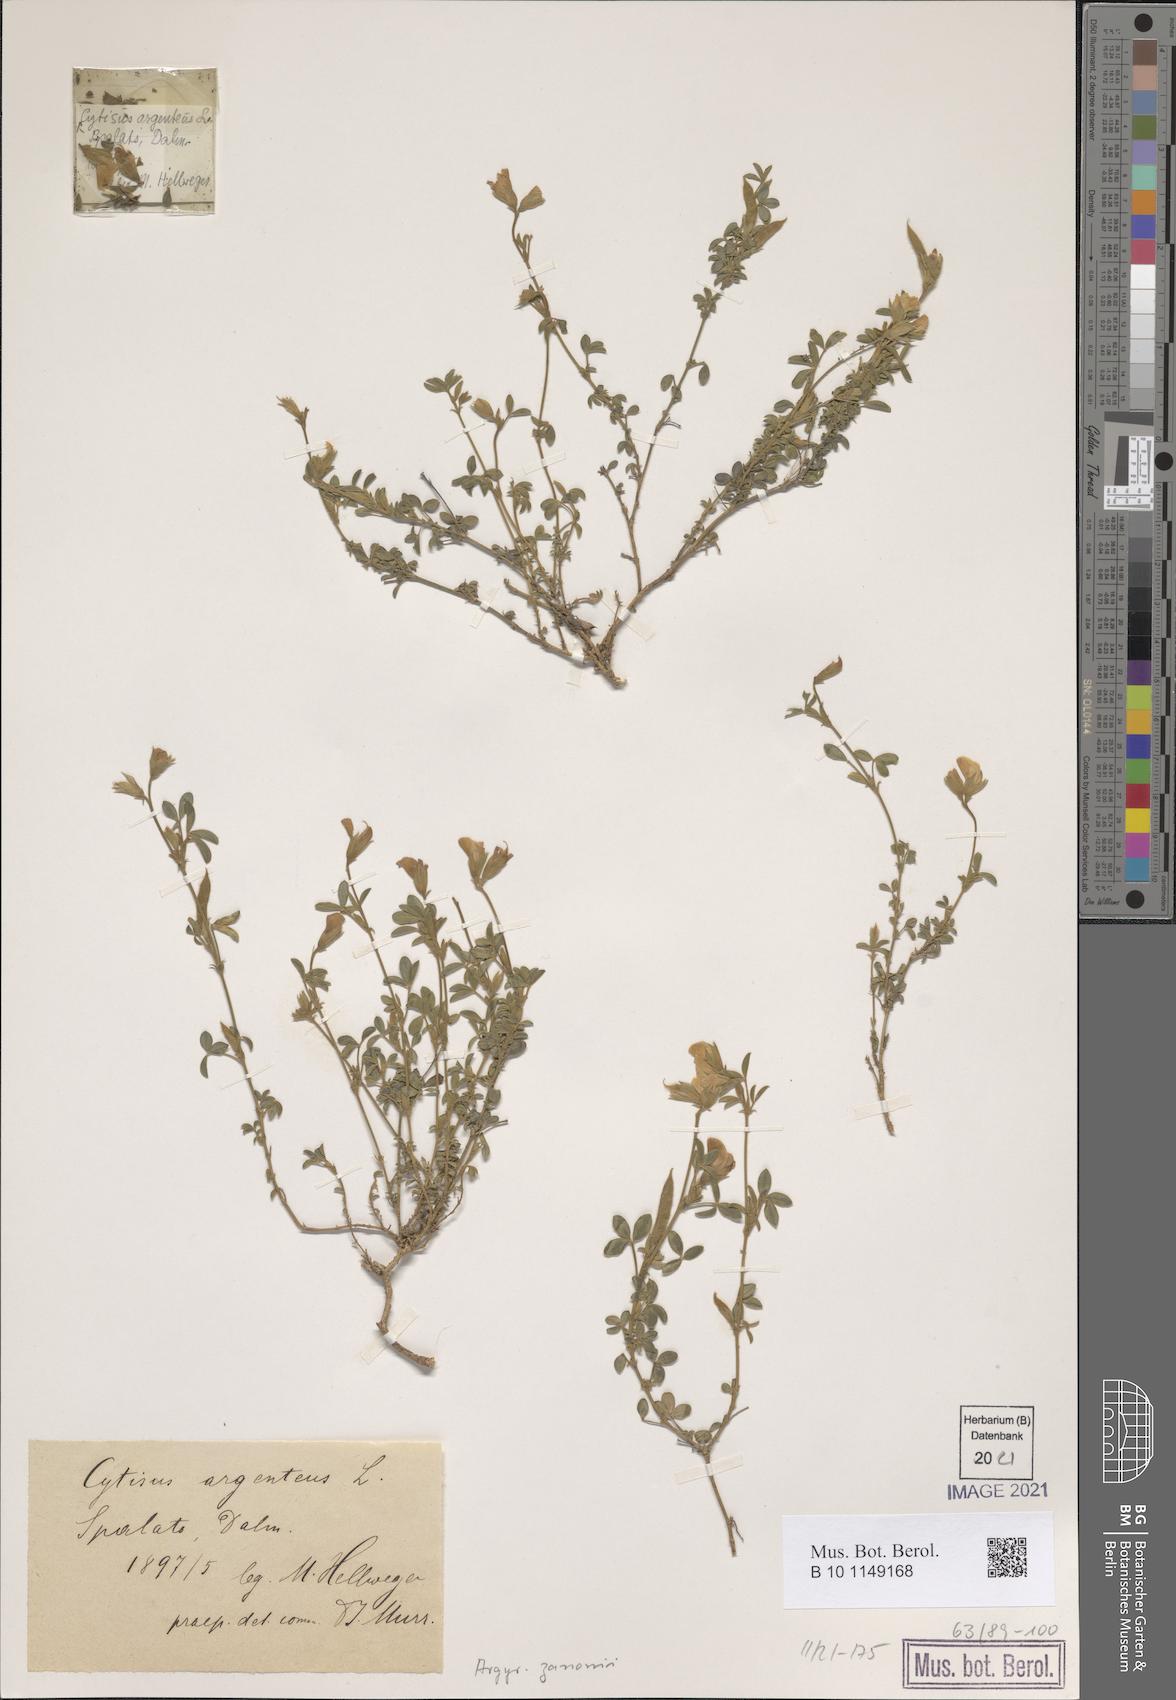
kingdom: Plantae
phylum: Tracheophyta
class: Magnoliopsida
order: Fabales
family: Fabaceae
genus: Argyrolobium
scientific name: Argyrolobium zanonii
